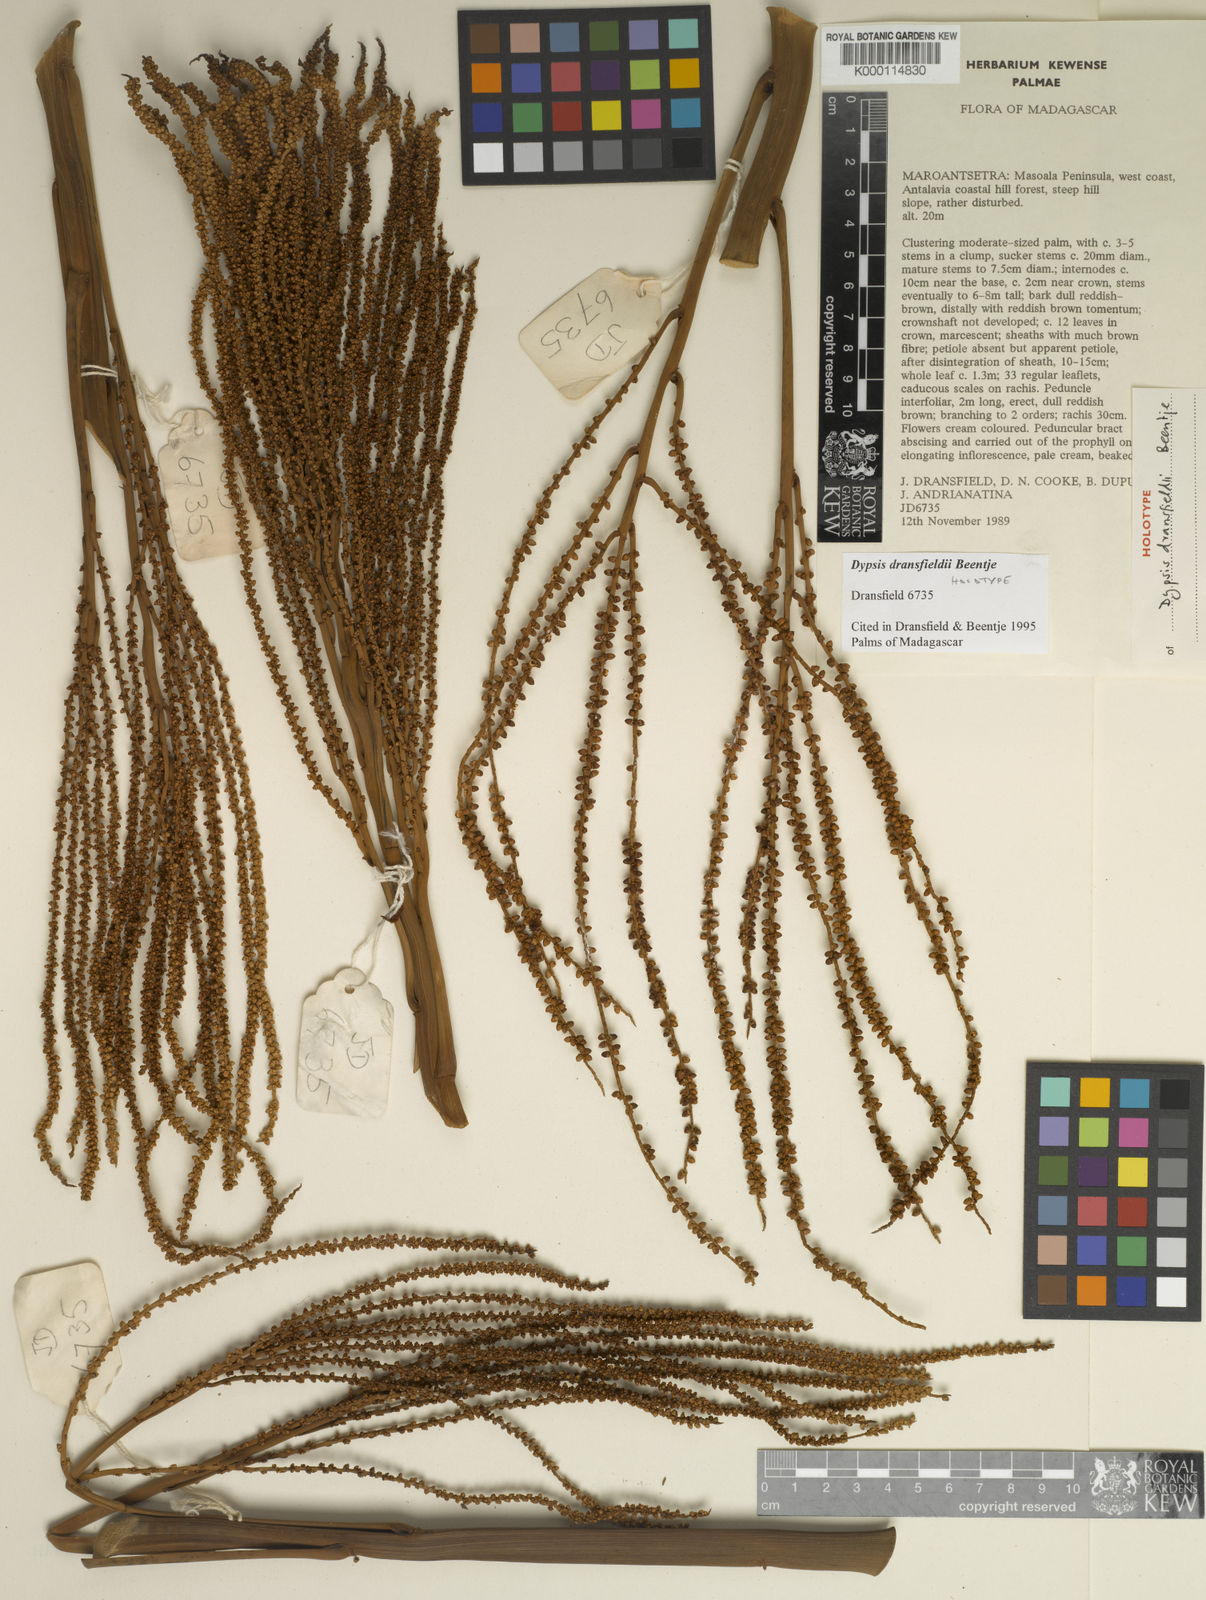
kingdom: Plantae
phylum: Tracheophyta
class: Liliopsida
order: Arecales
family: Arecaceae
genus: Dypsis
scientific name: Dypsis dransfieldii
